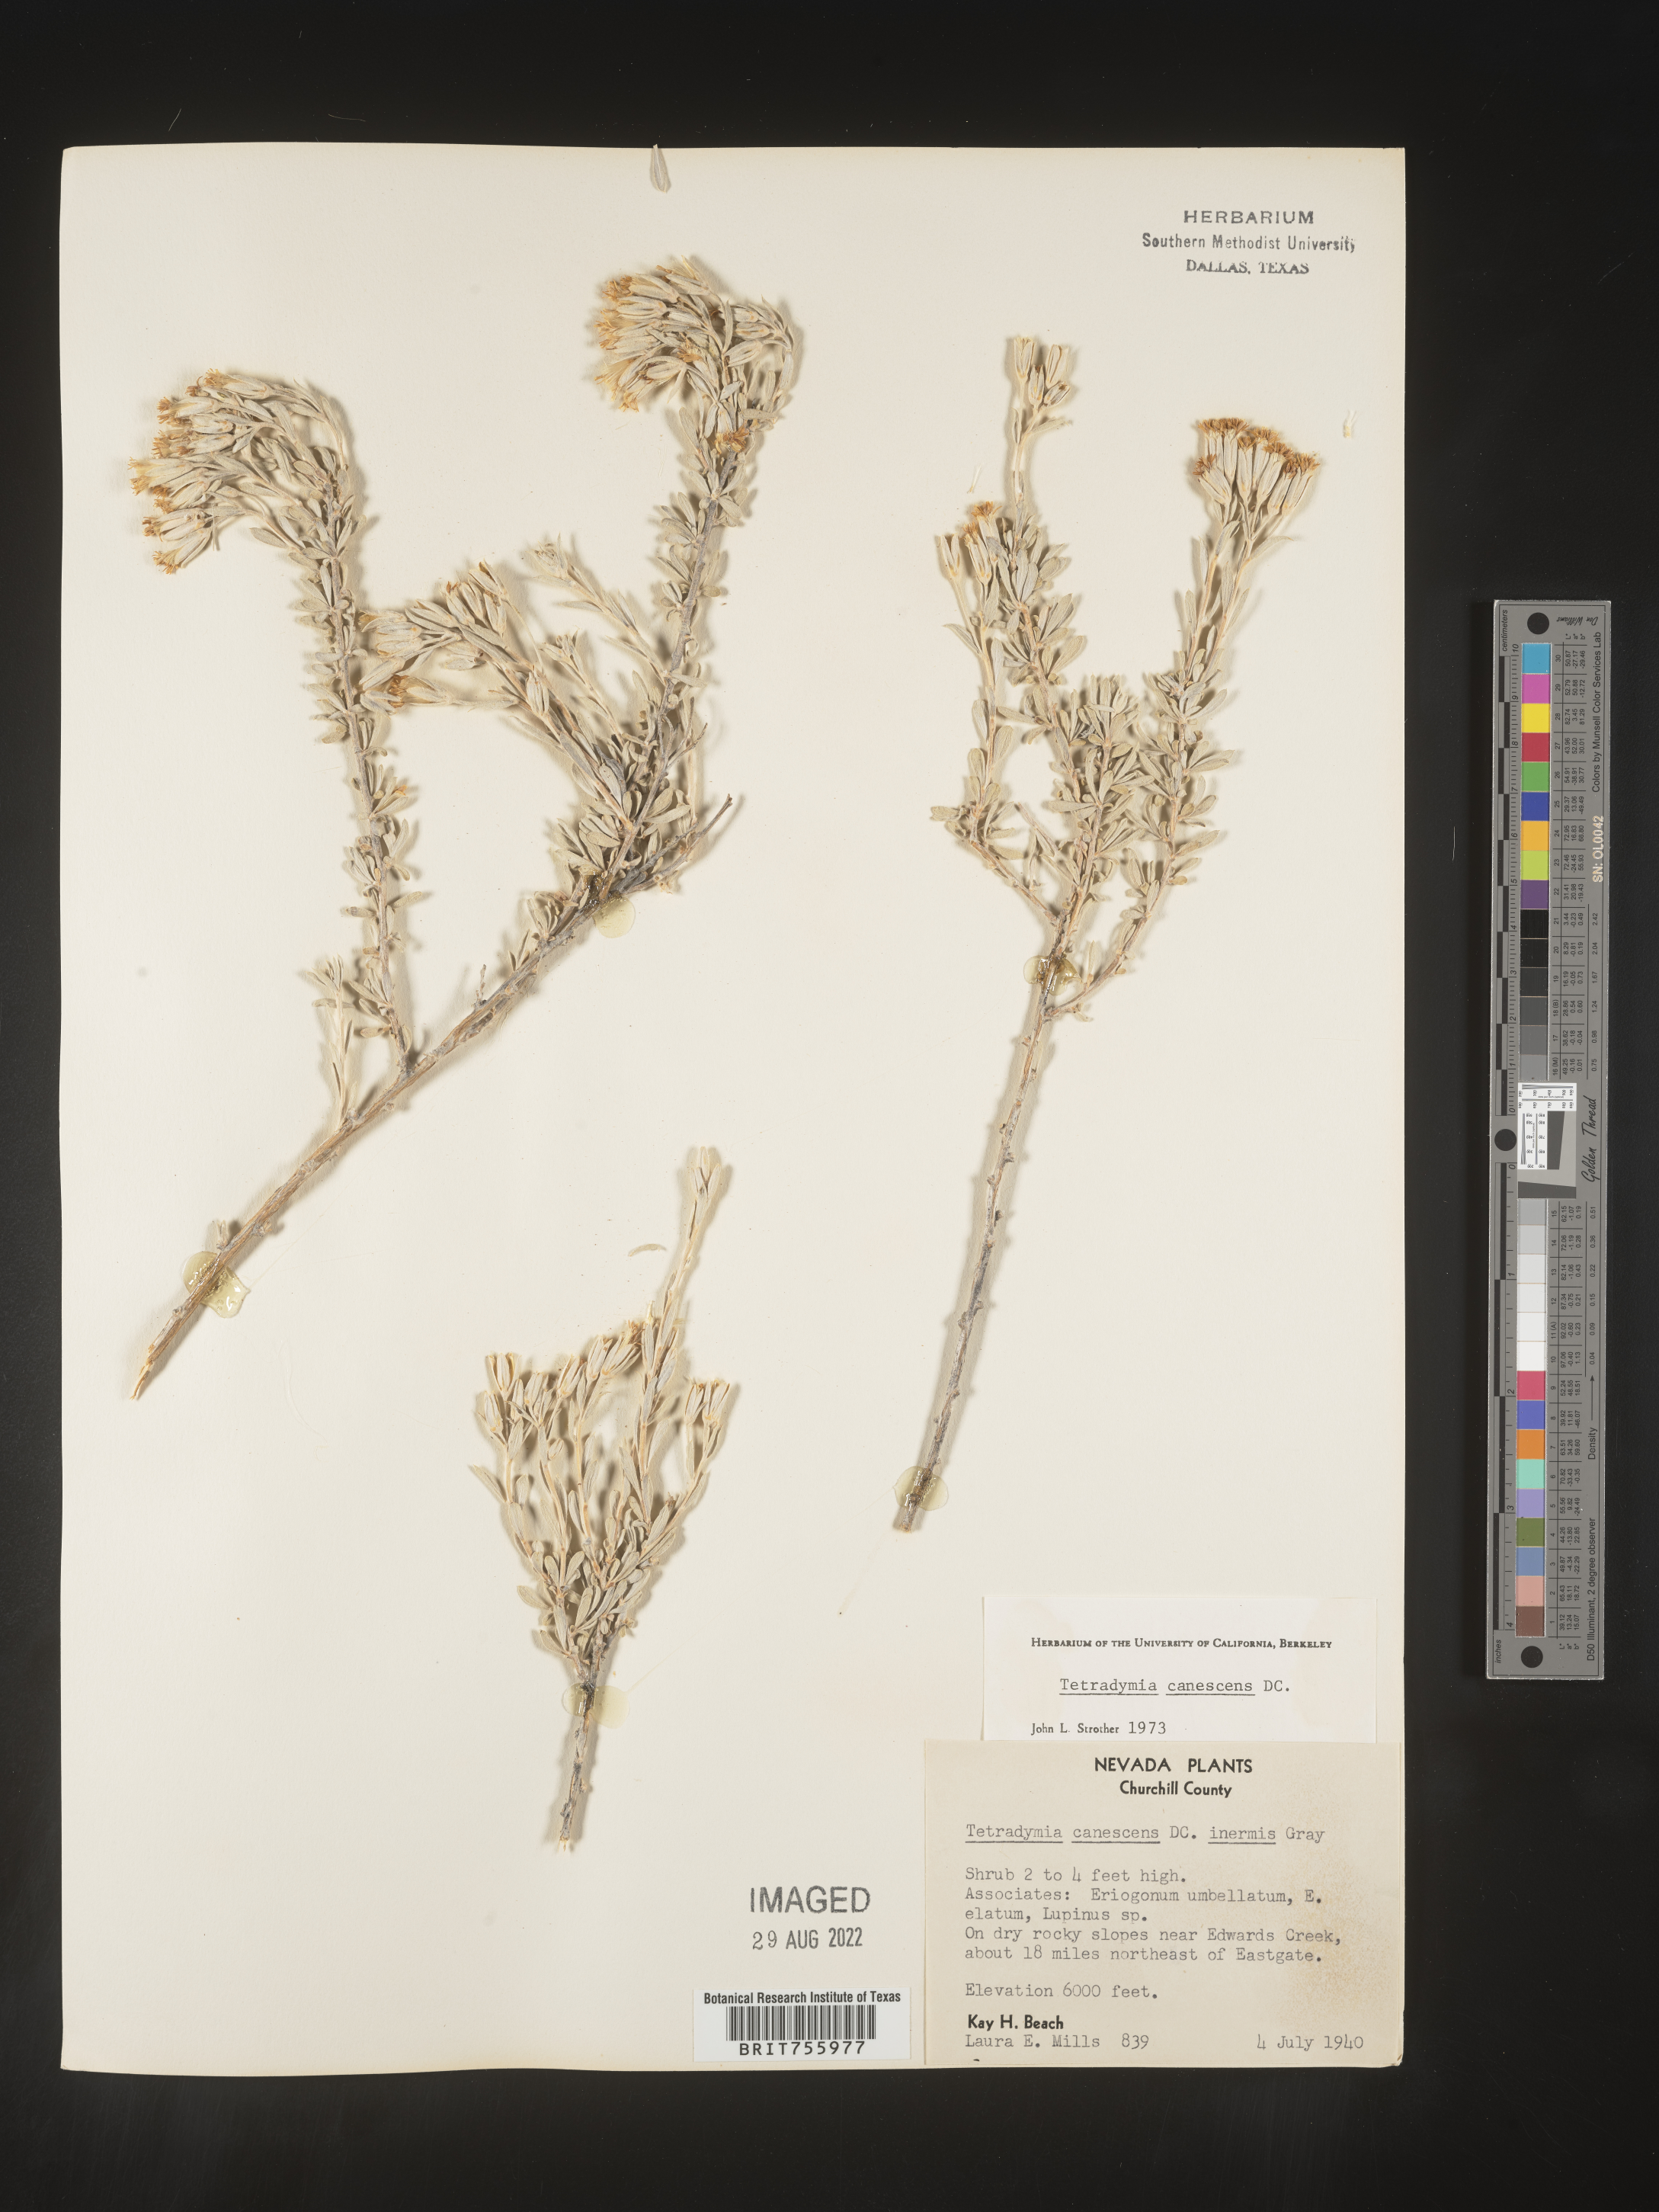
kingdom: Plantae
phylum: Tracheophyta
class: Magnoliopsida
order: Asterales
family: Asteraceae
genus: Tetradymia
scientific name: Tetradymia canescens
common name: Spineless horsebrush
